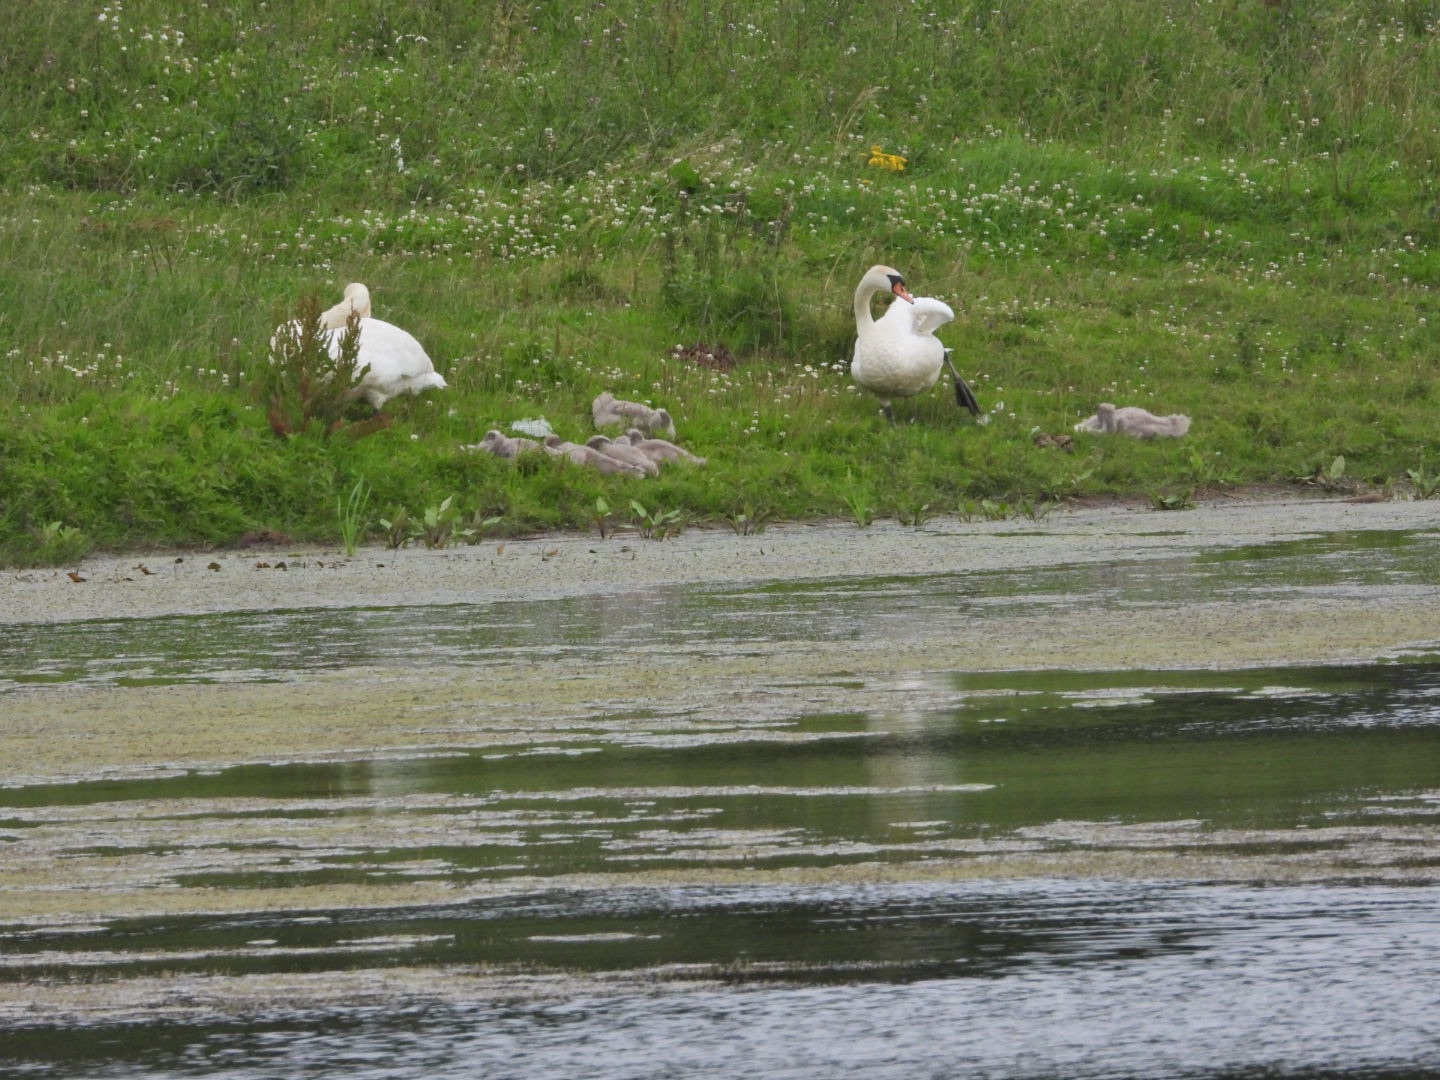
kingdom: Animalia
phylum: Chordata
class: Aves
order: Anseriformes
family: Anatidae
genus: Cygnus
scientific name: Cygnus olor
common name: Knopsvane
